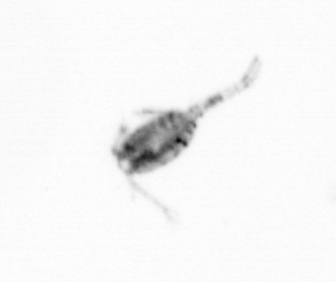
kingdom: Animalia
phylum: Arthropoda
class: Copepoda
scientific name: Copepoda
